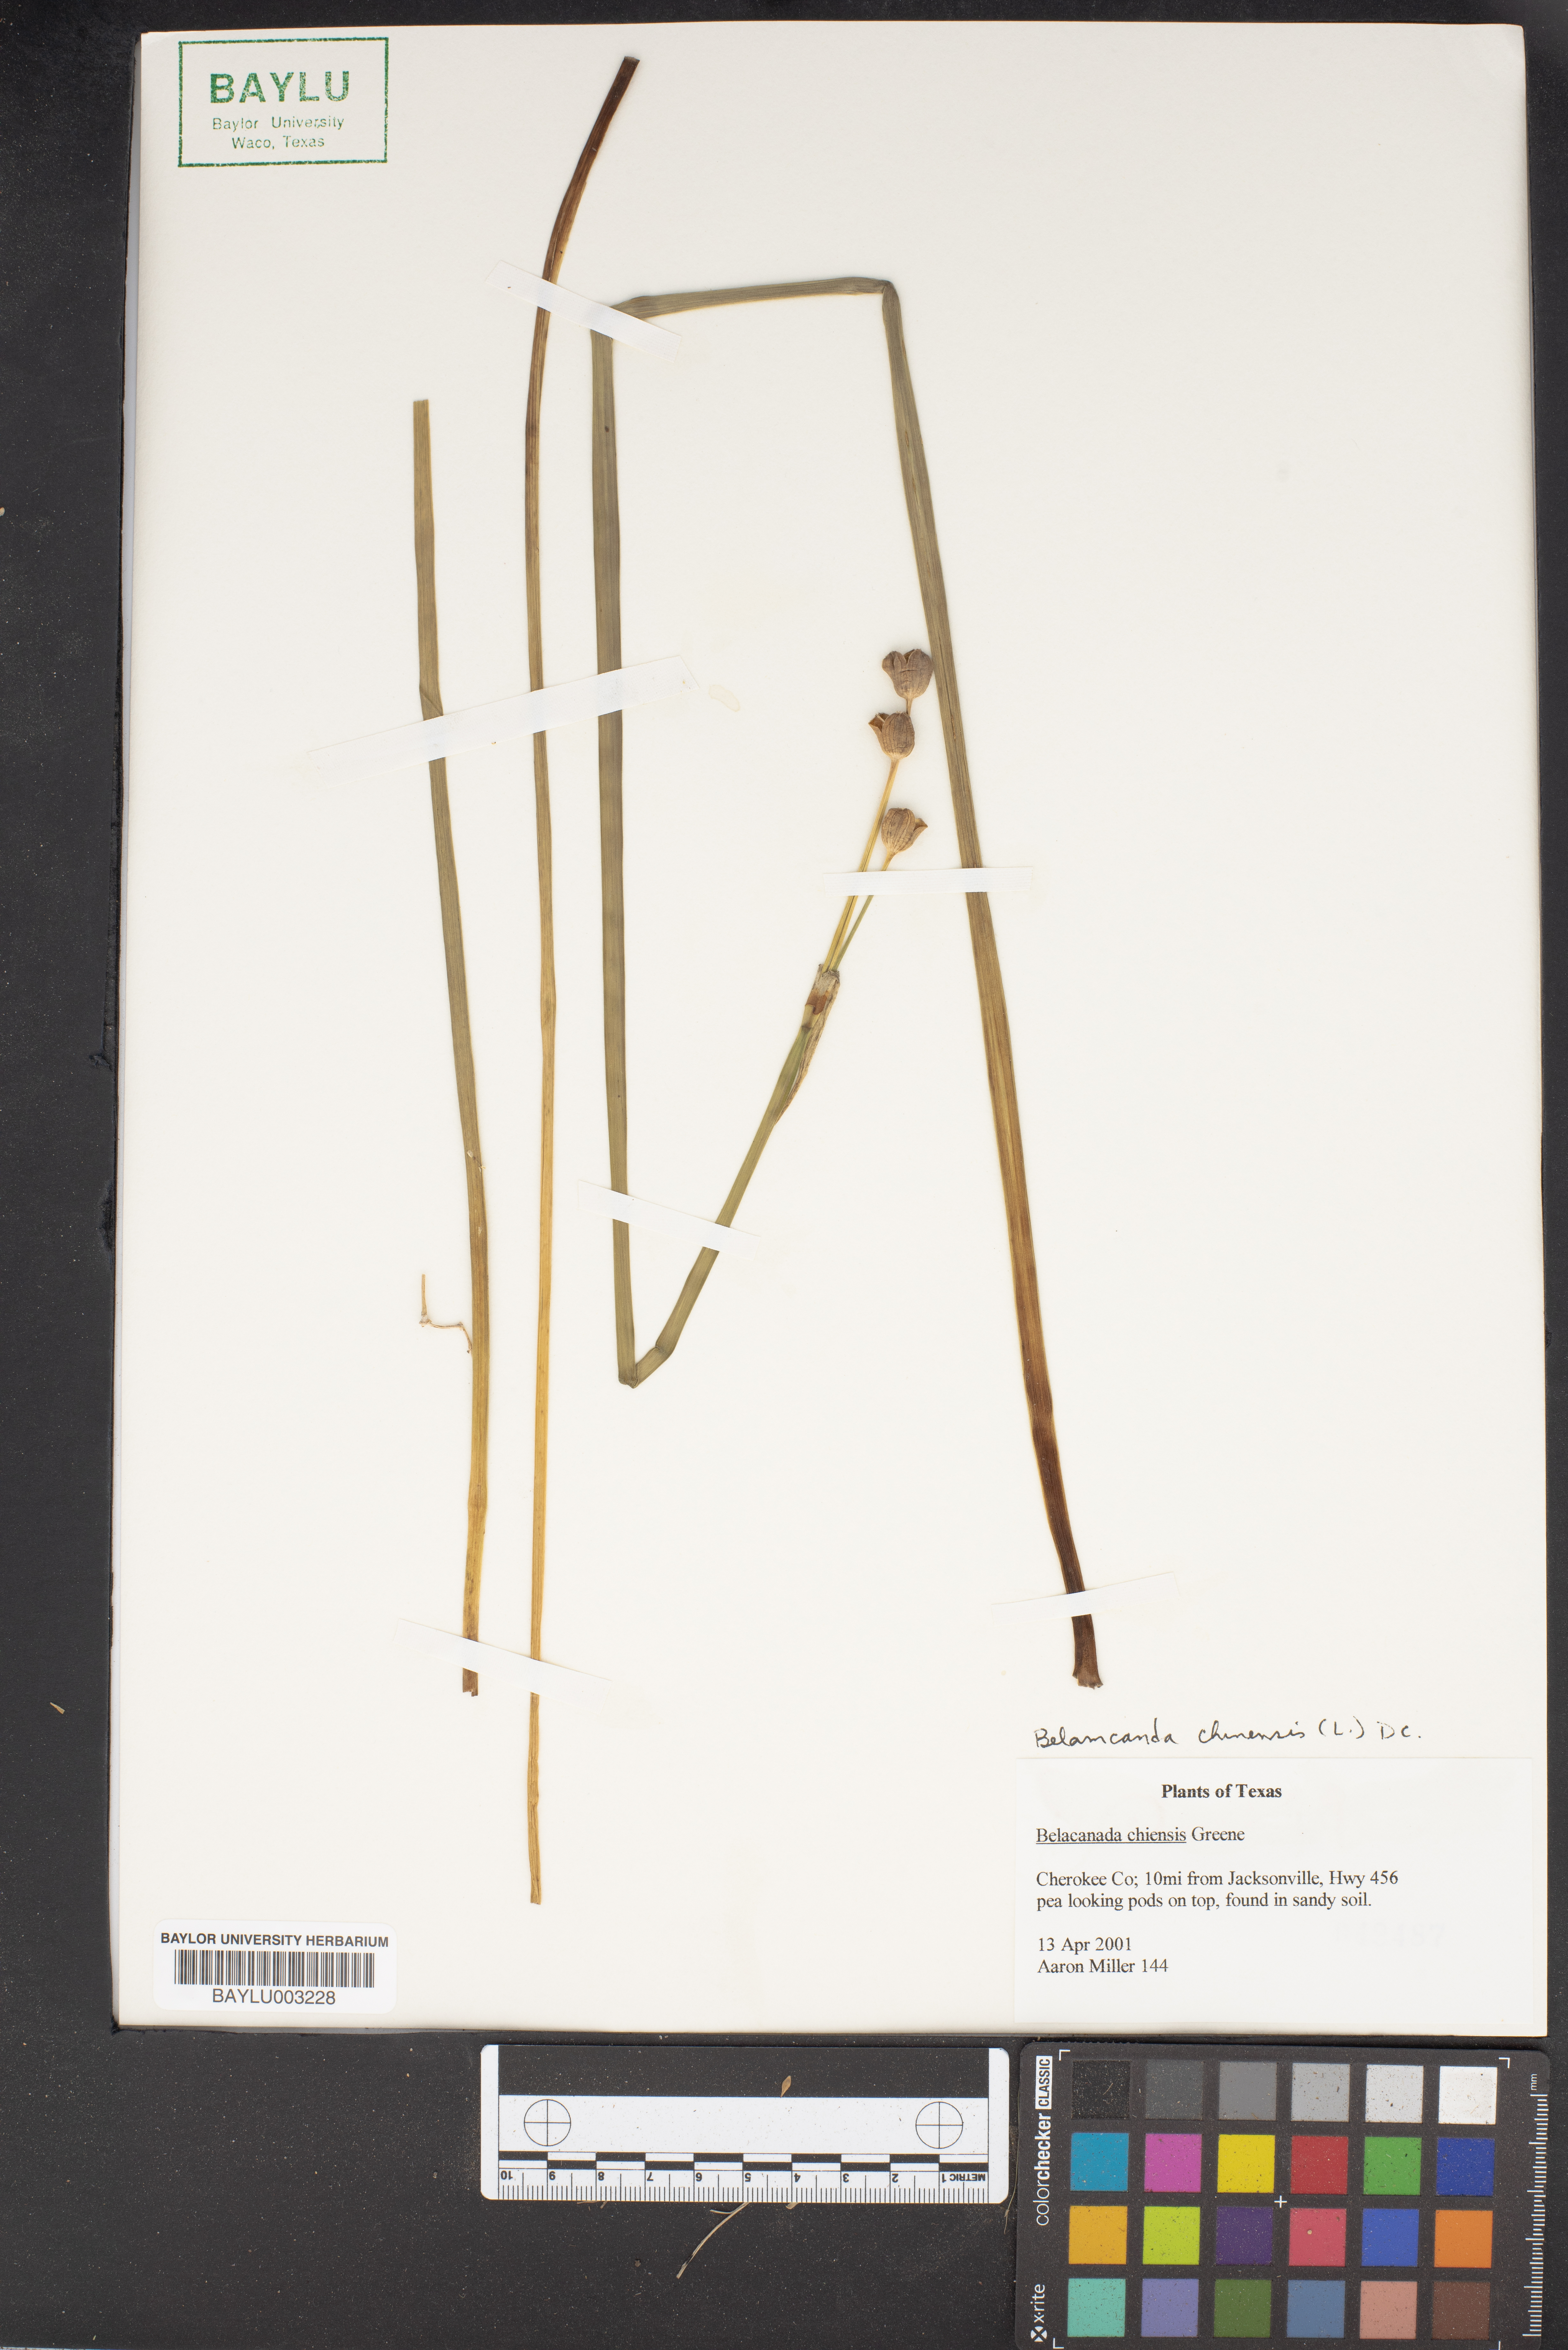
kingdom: Plantae
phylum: Tracheophyta
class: Liliopsida
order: Asparagales
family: Iridaceae
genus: Iris
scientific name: Iris domestica
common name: Belamcanda
